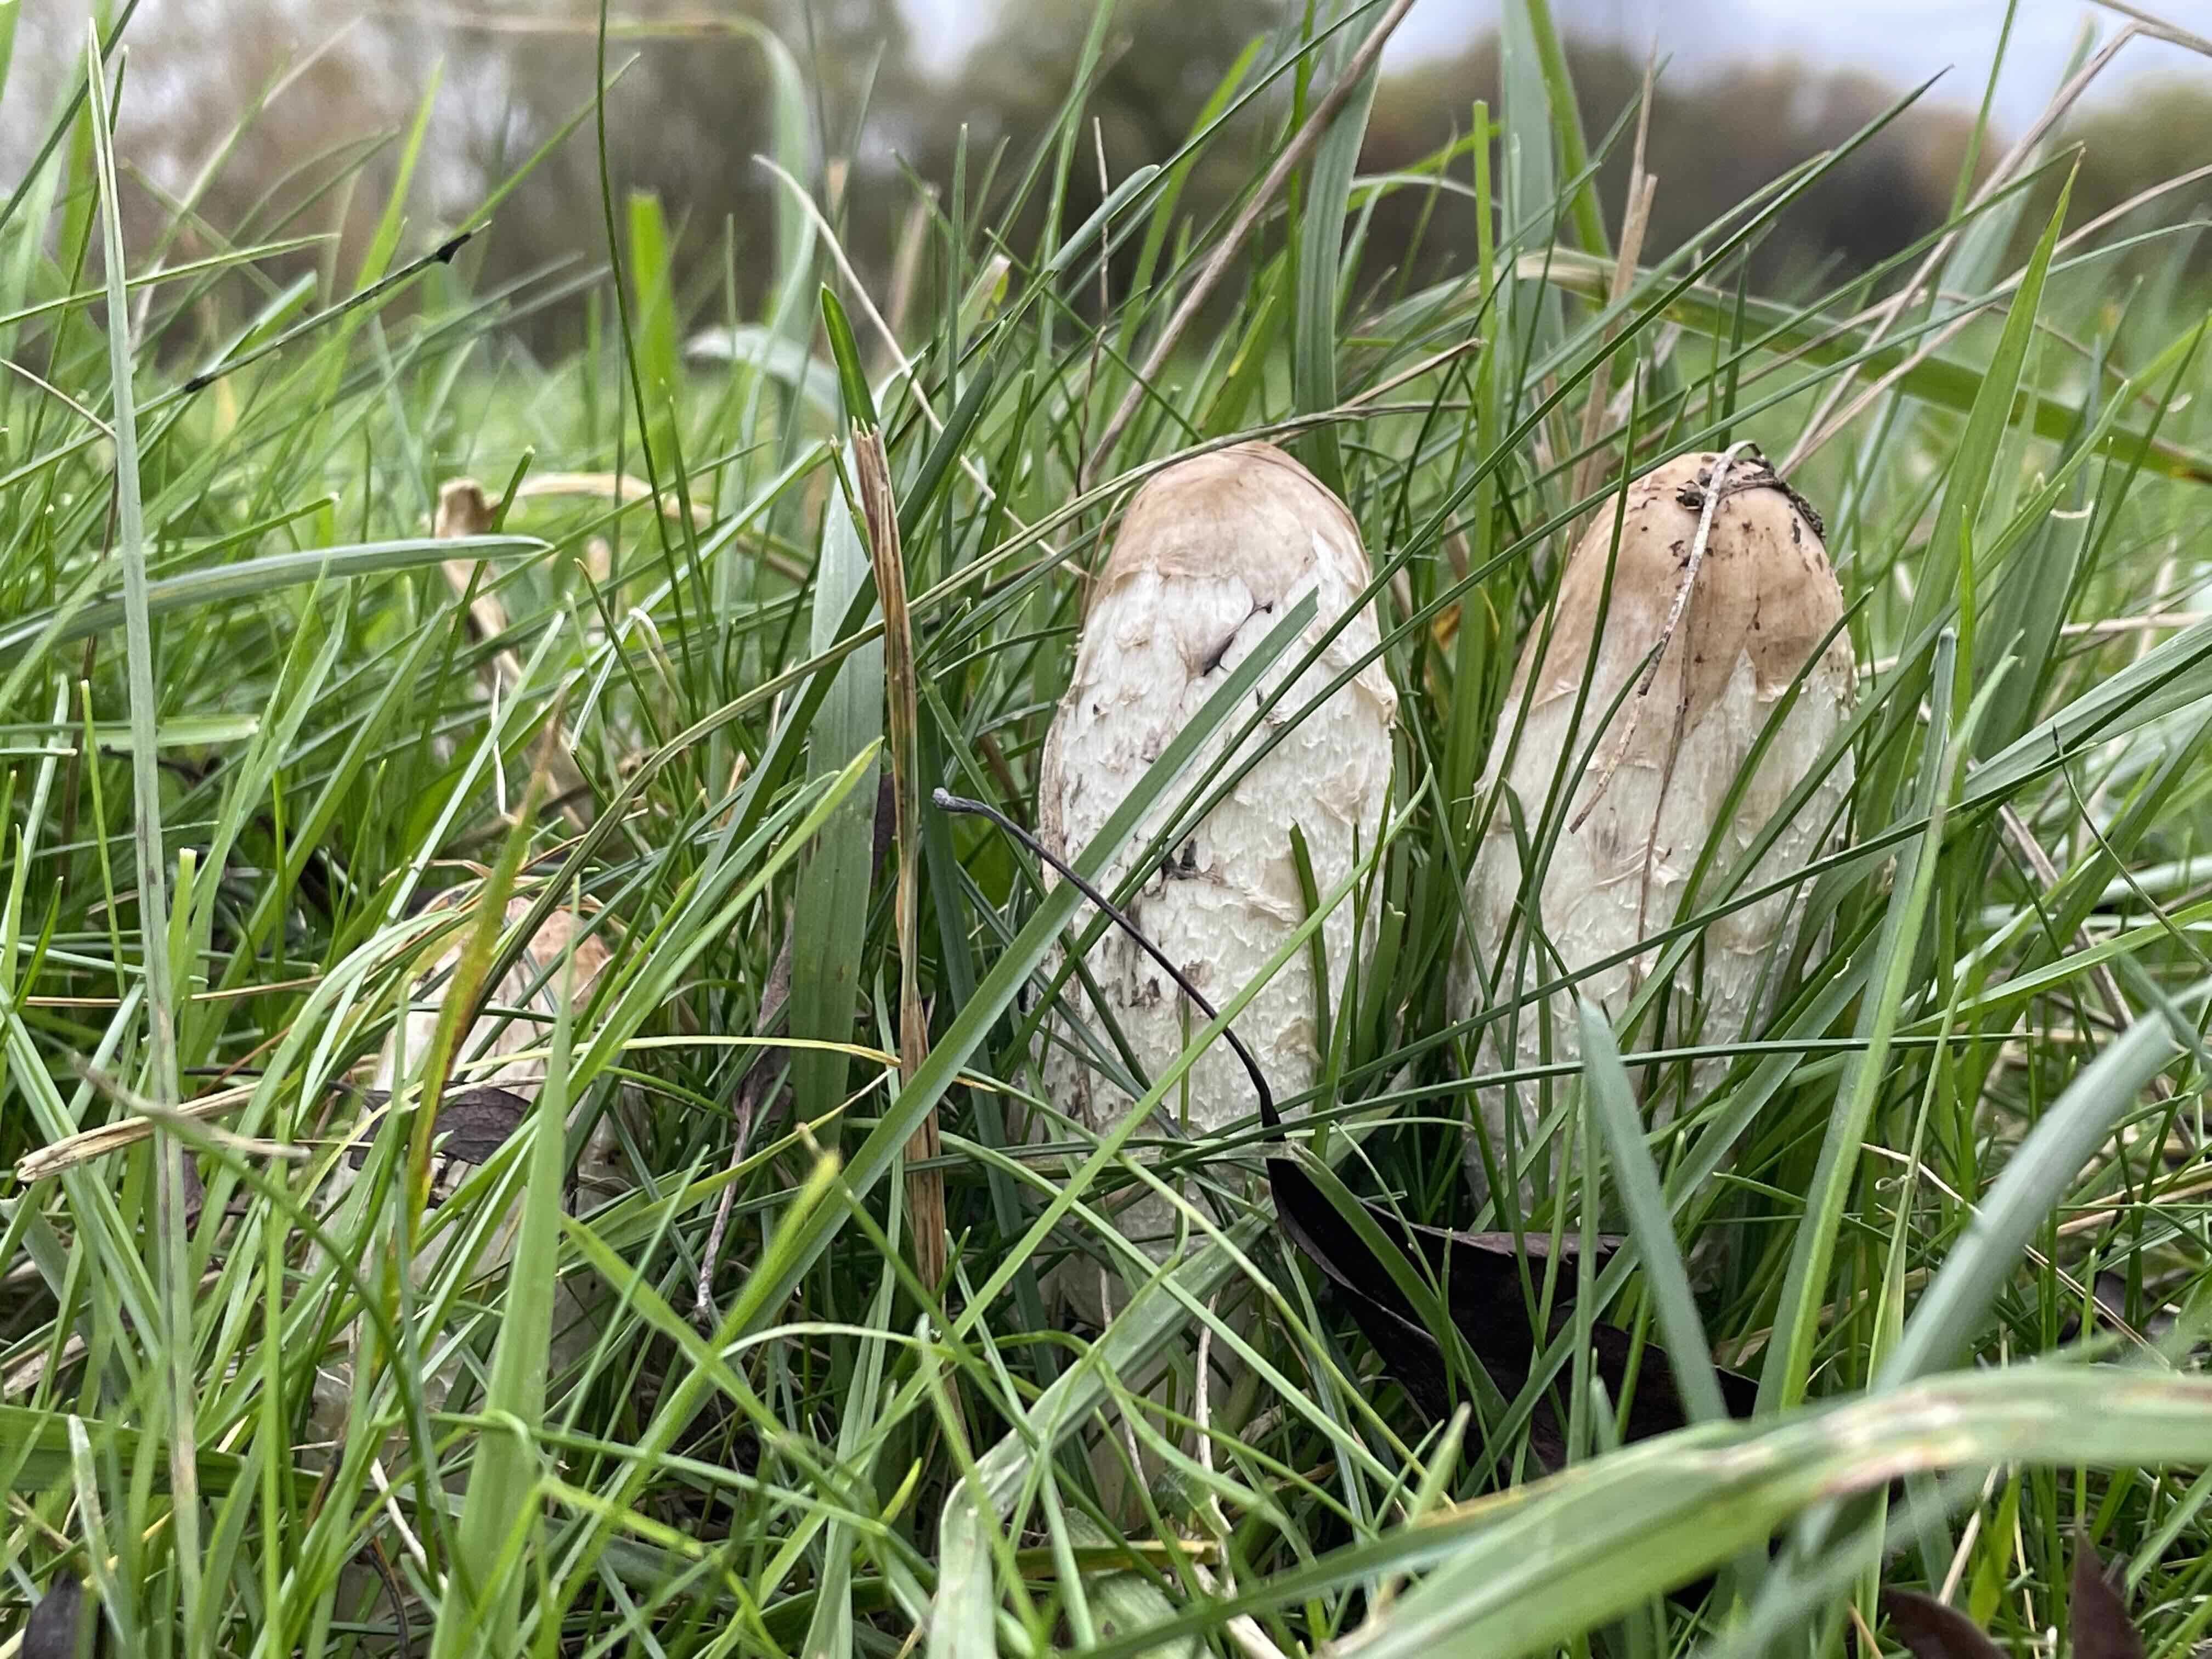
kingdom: Fungi
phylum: Basidiomycota
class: Agaricomycetes
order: Agaricales
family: Agaricaceae
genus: Coprinus
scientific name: Coprinus comatus
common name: stor parykhat
